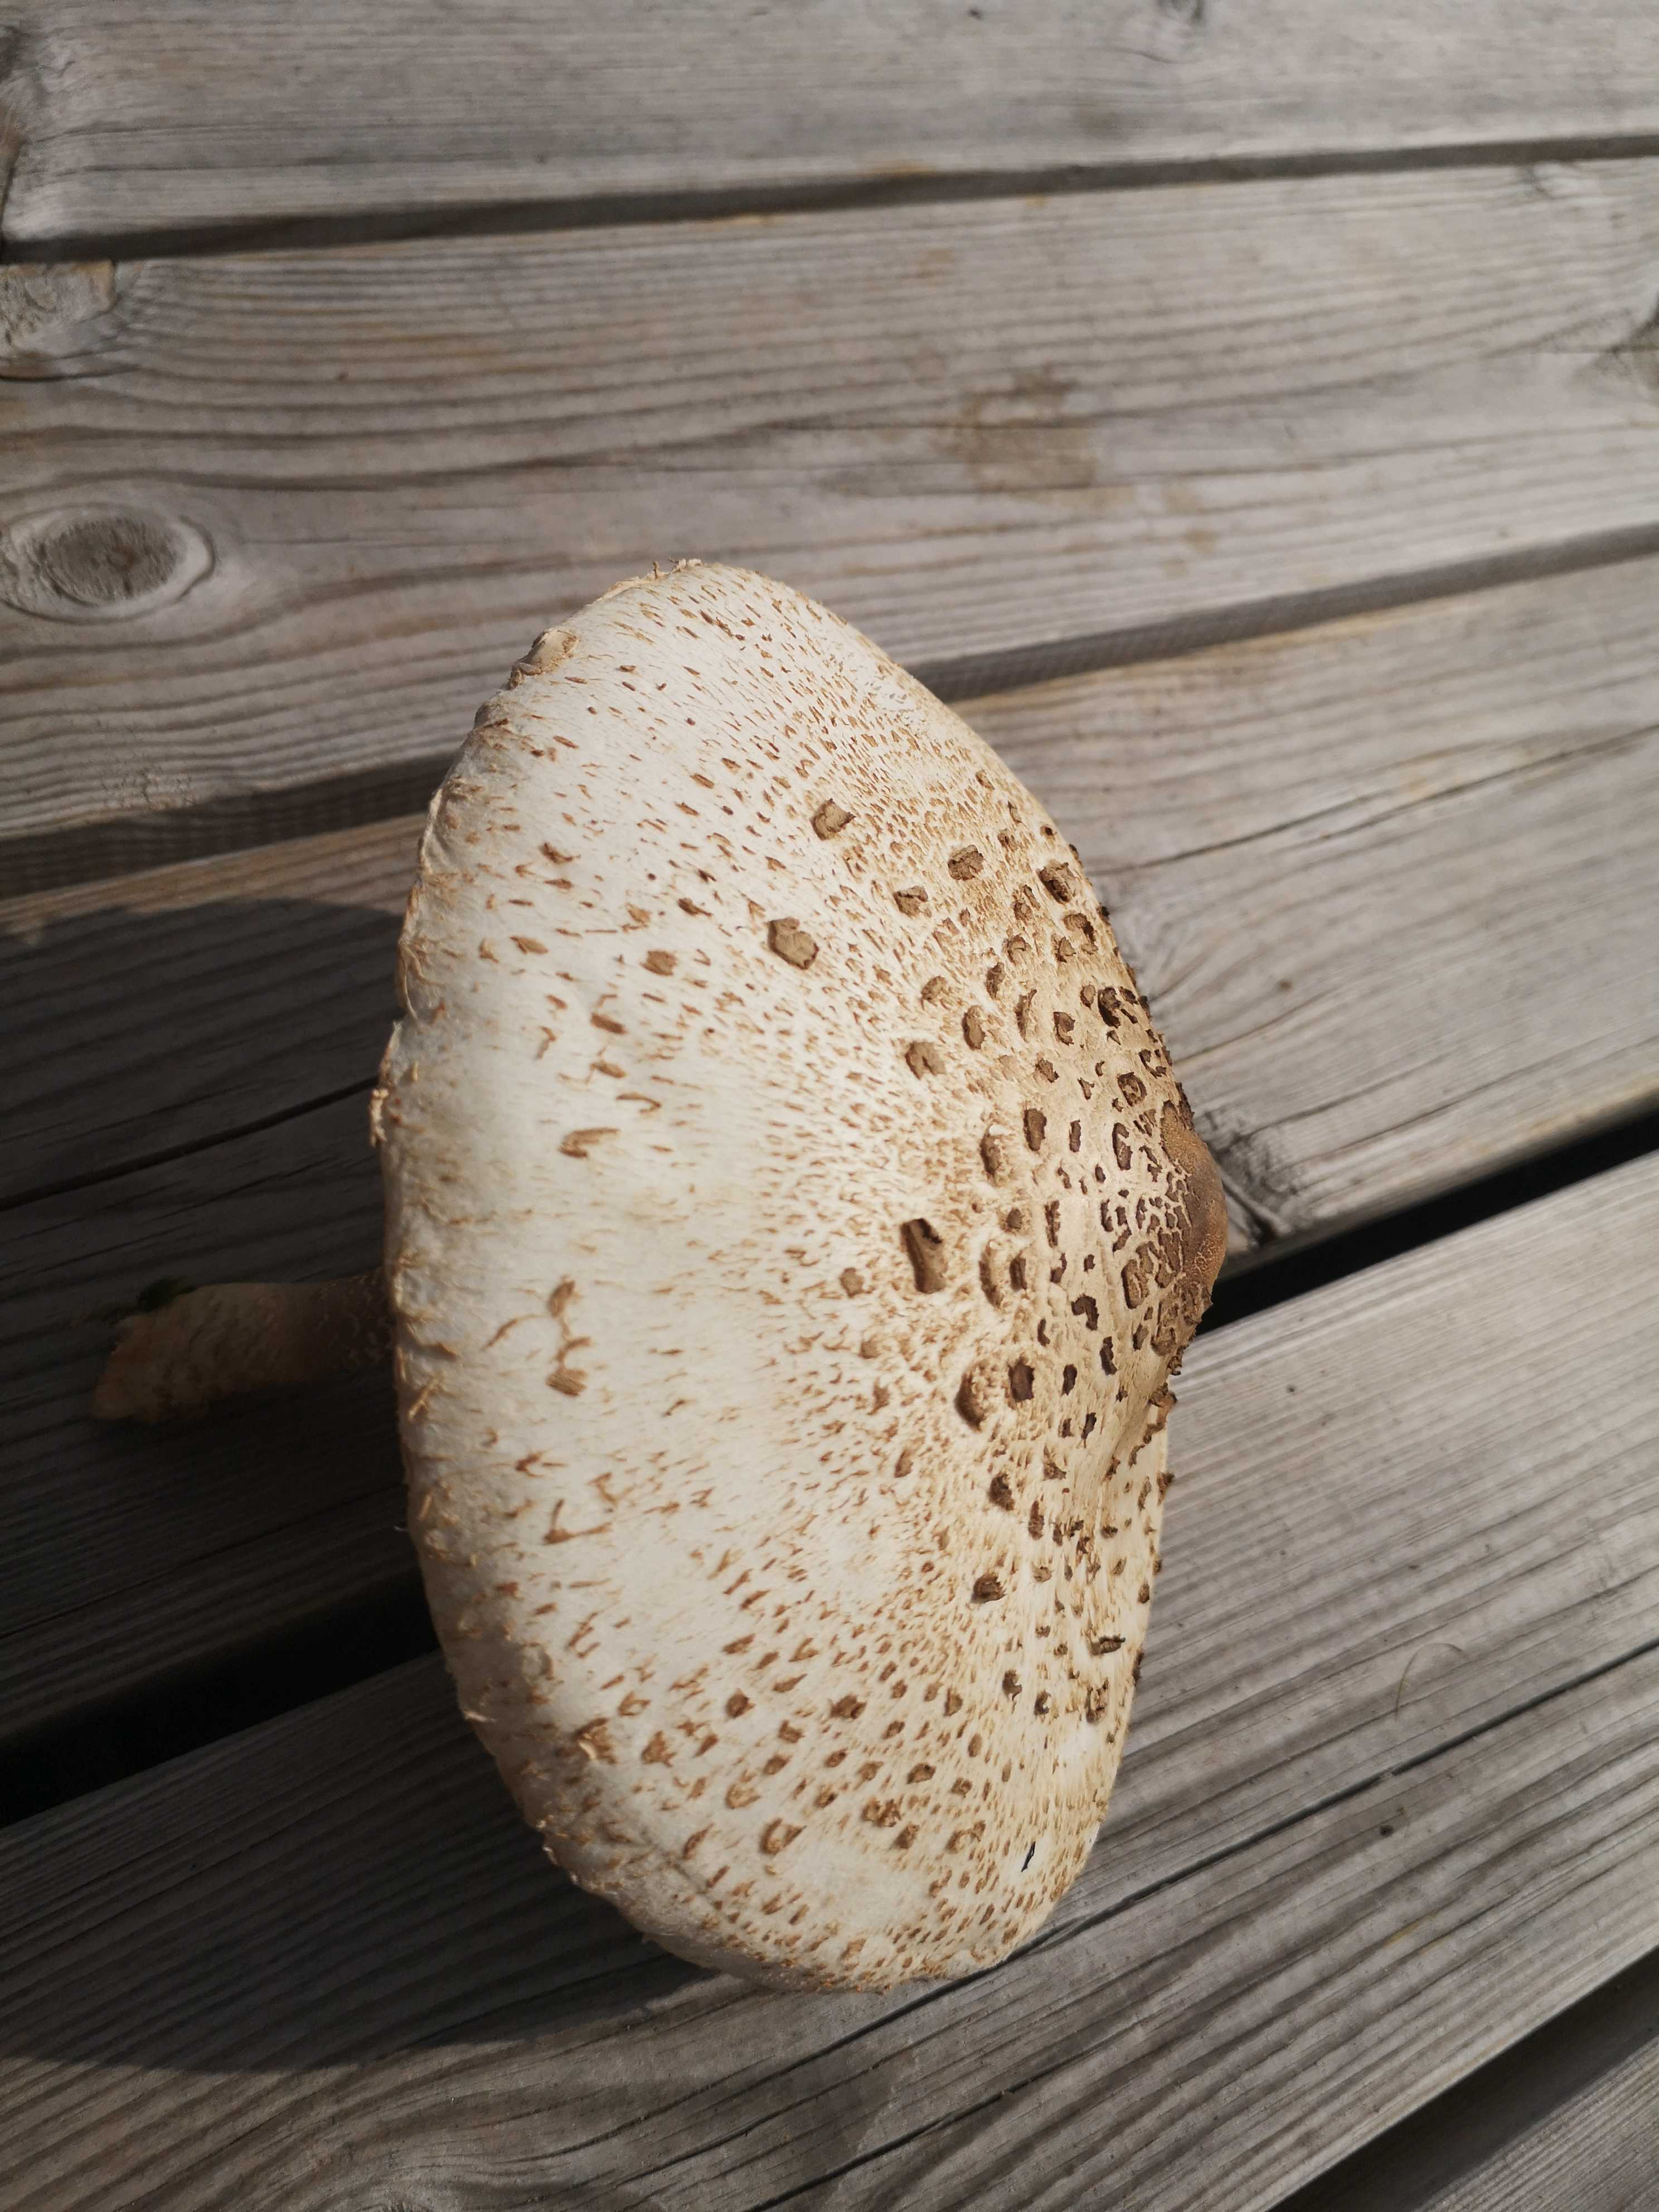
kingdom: Fungi
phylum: Basidiomycota
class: Agaricomycetes
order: Agaricales
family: Agaricaceae
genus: Macrolepiota
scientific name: Macrolepiota procera
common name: stor kæmpeparasolhat
